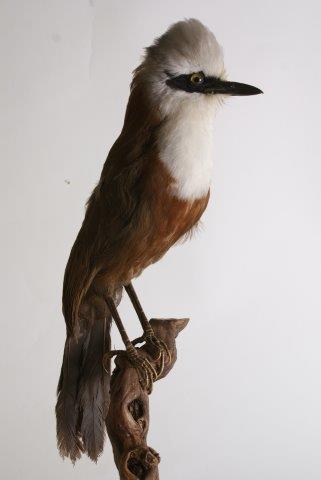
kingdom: Animalia
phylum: Chordata
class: Aves
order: Passeriformes
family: Leiothrichidae
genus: Garrulax
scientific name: Garrulax leucolophus
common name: White-crested laughingthrush
